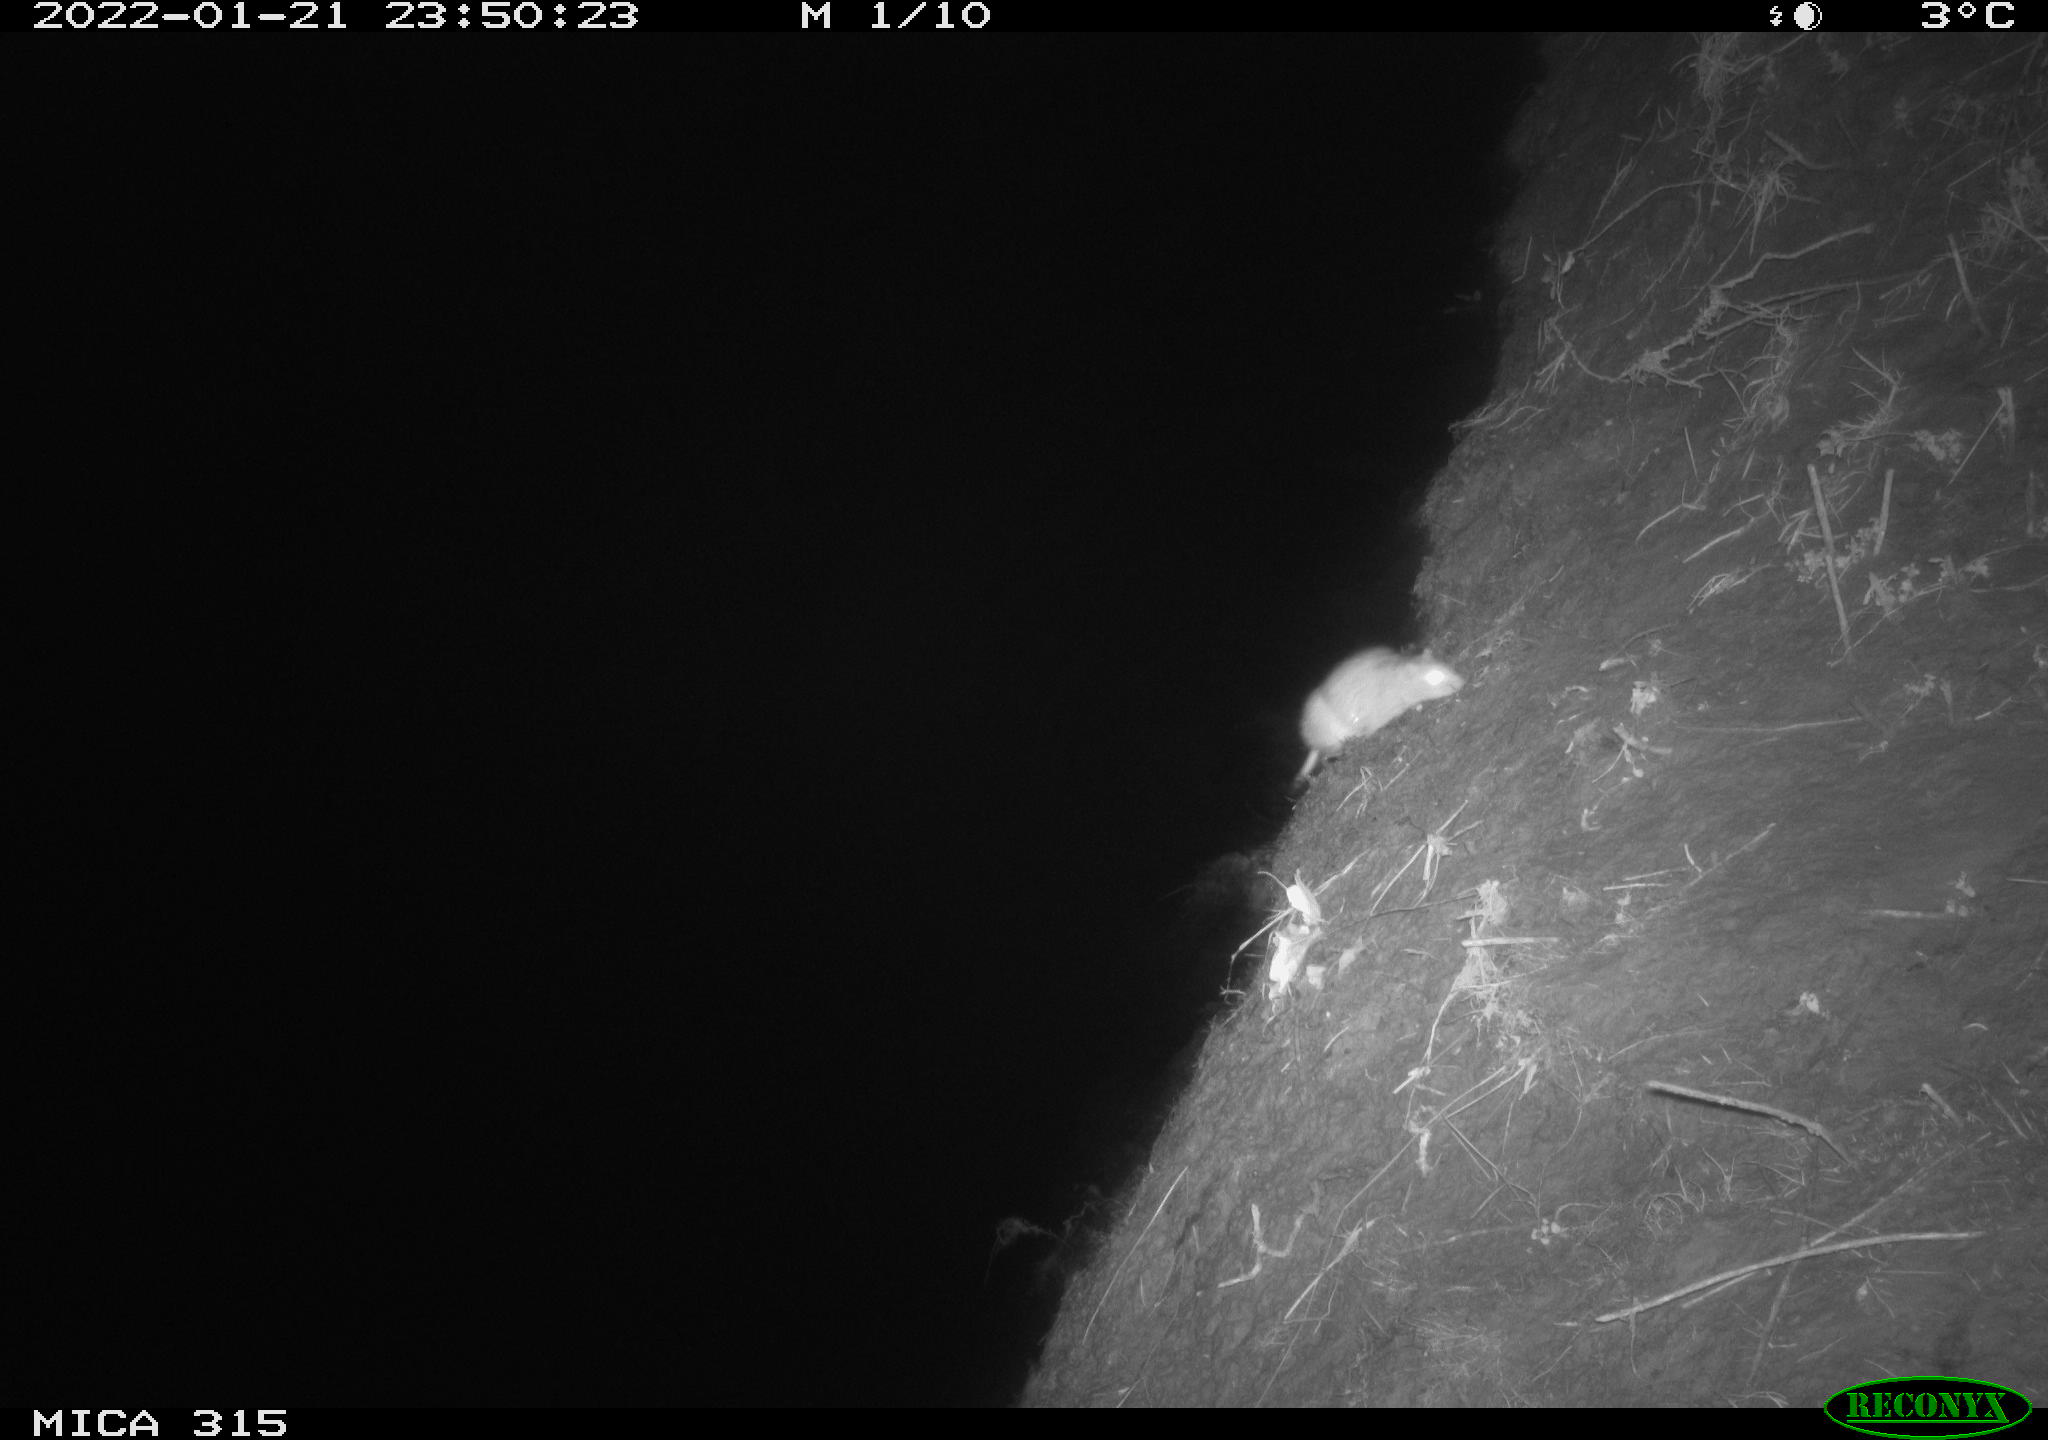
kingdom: Animalia
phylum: Chordata
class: Mammalia
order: Rodentia
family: Muridae
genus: Rattus
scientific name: Rattus norvegicus
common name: Brown rat
